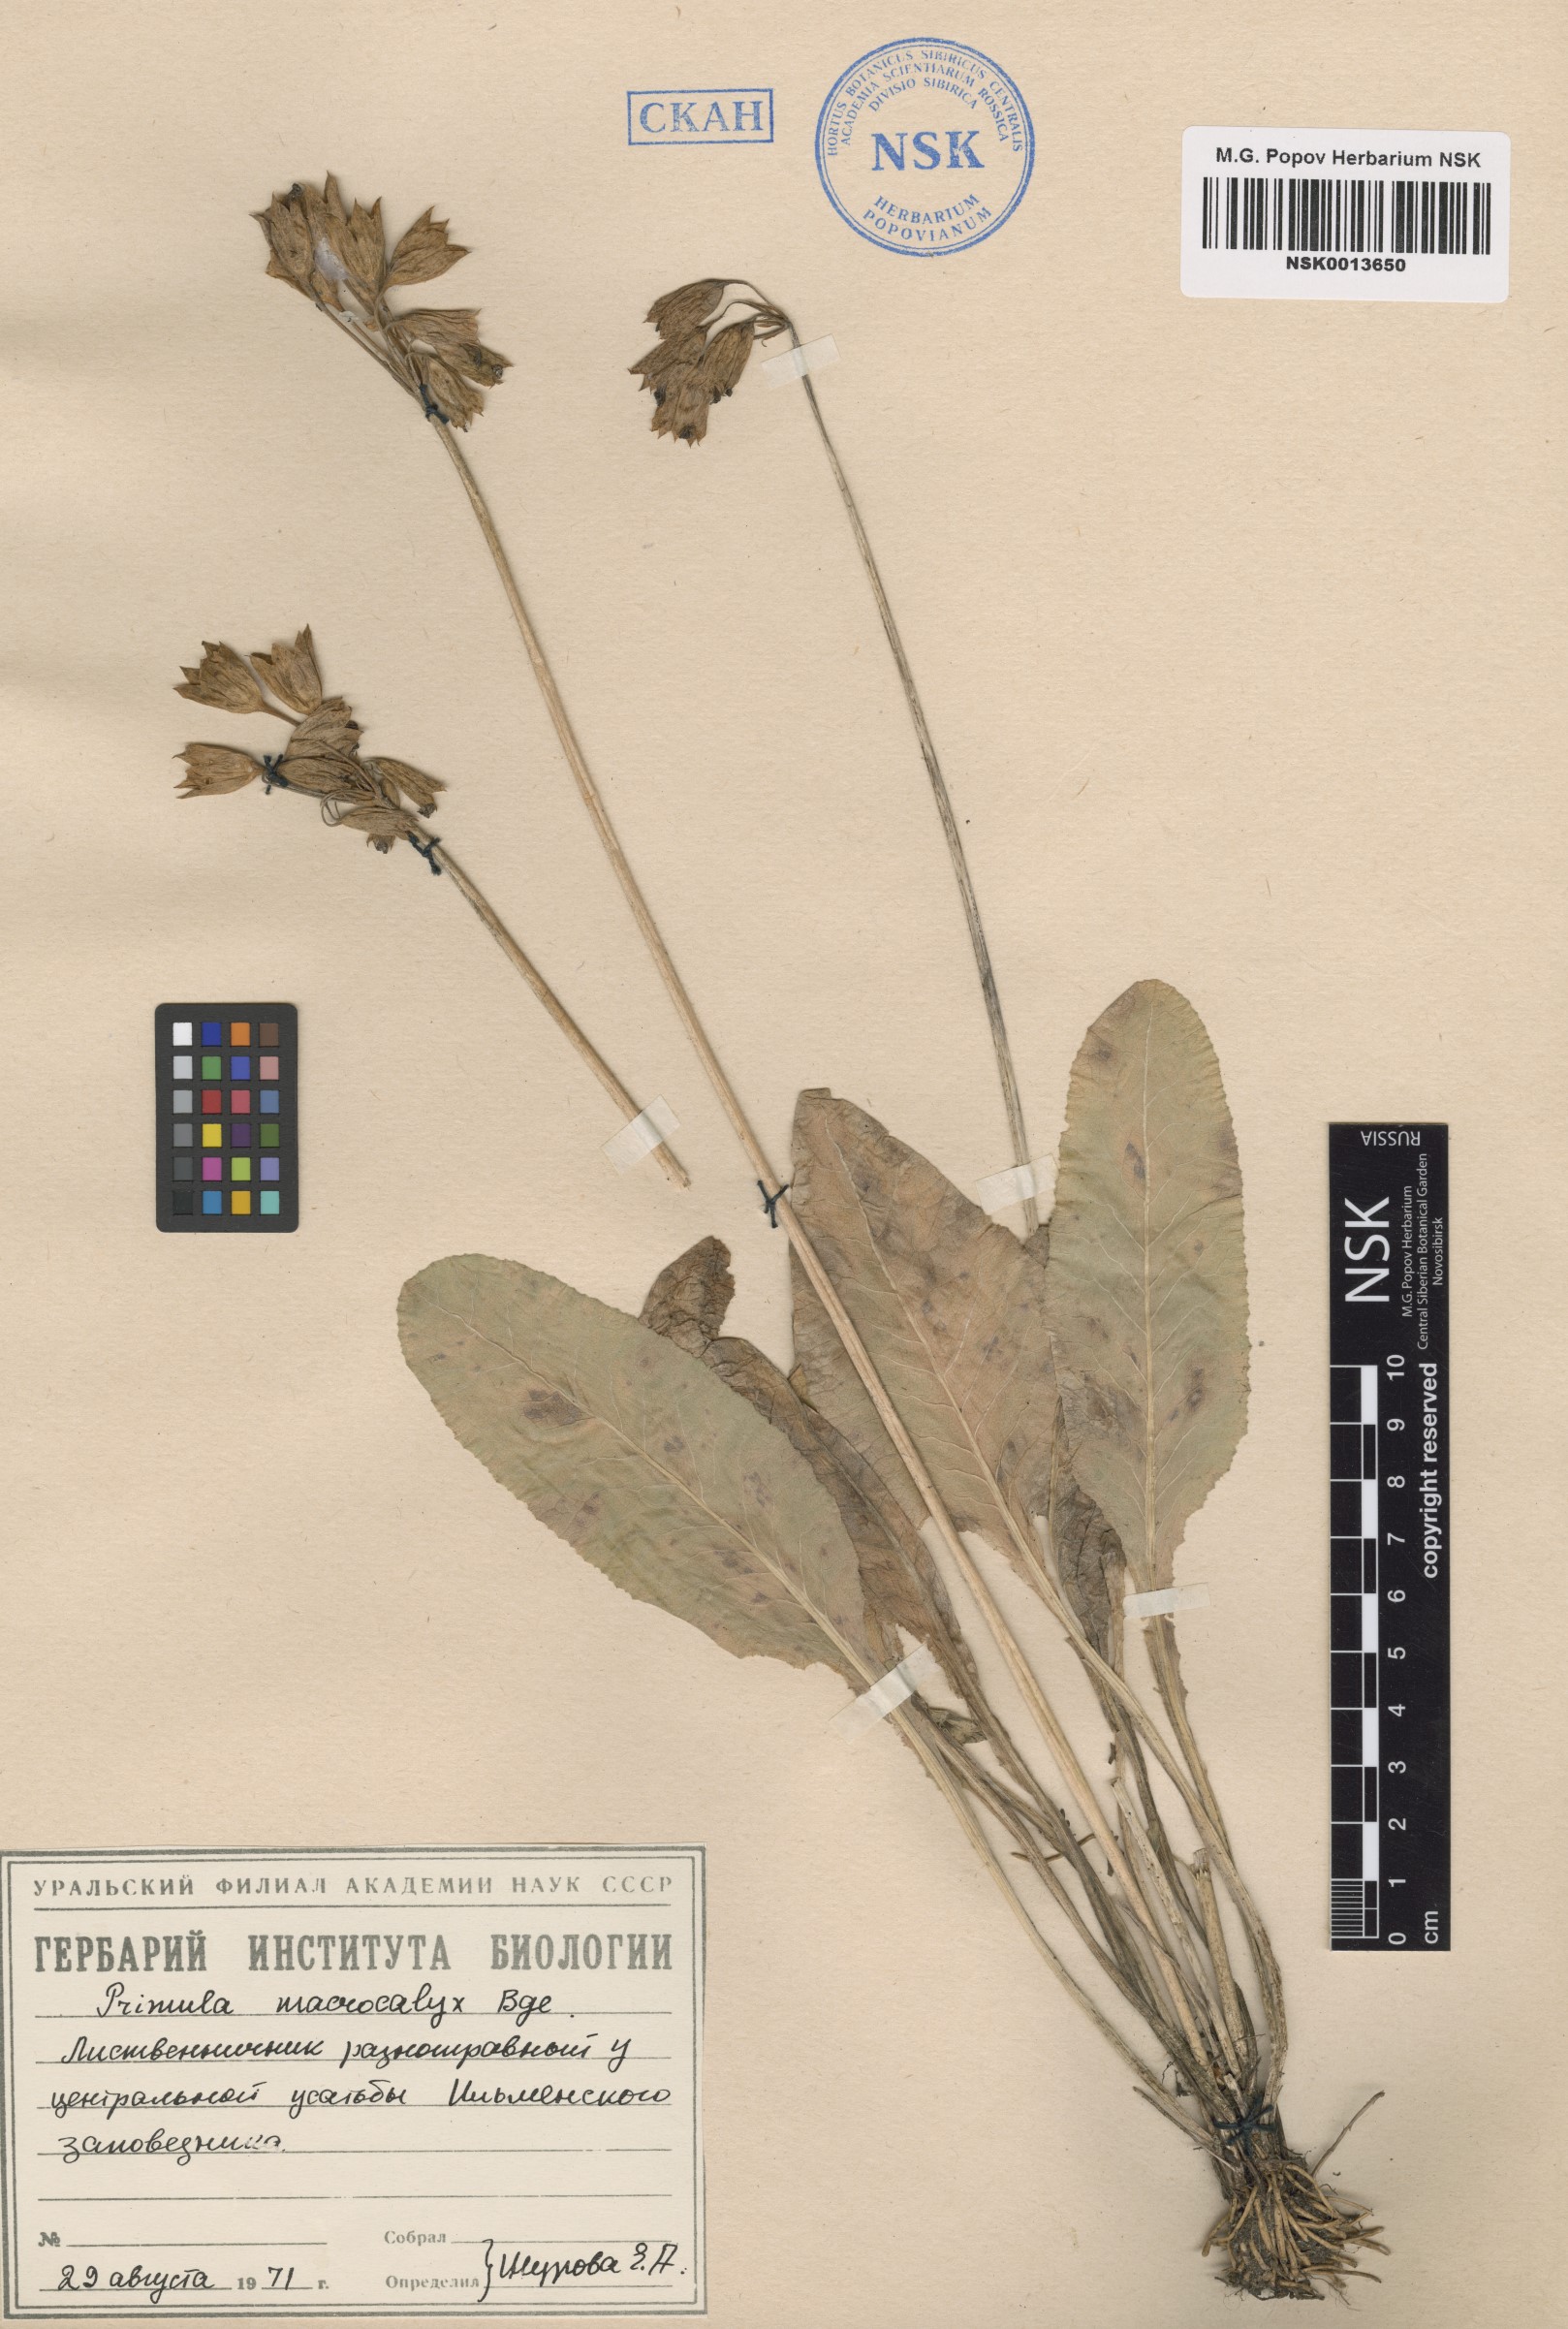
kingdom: Plantae
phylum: Tracheophyta
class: Magnoliopsida
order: Ericales
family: Primulaceae
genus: Primula
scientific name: Primula veris
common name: Cowslip
